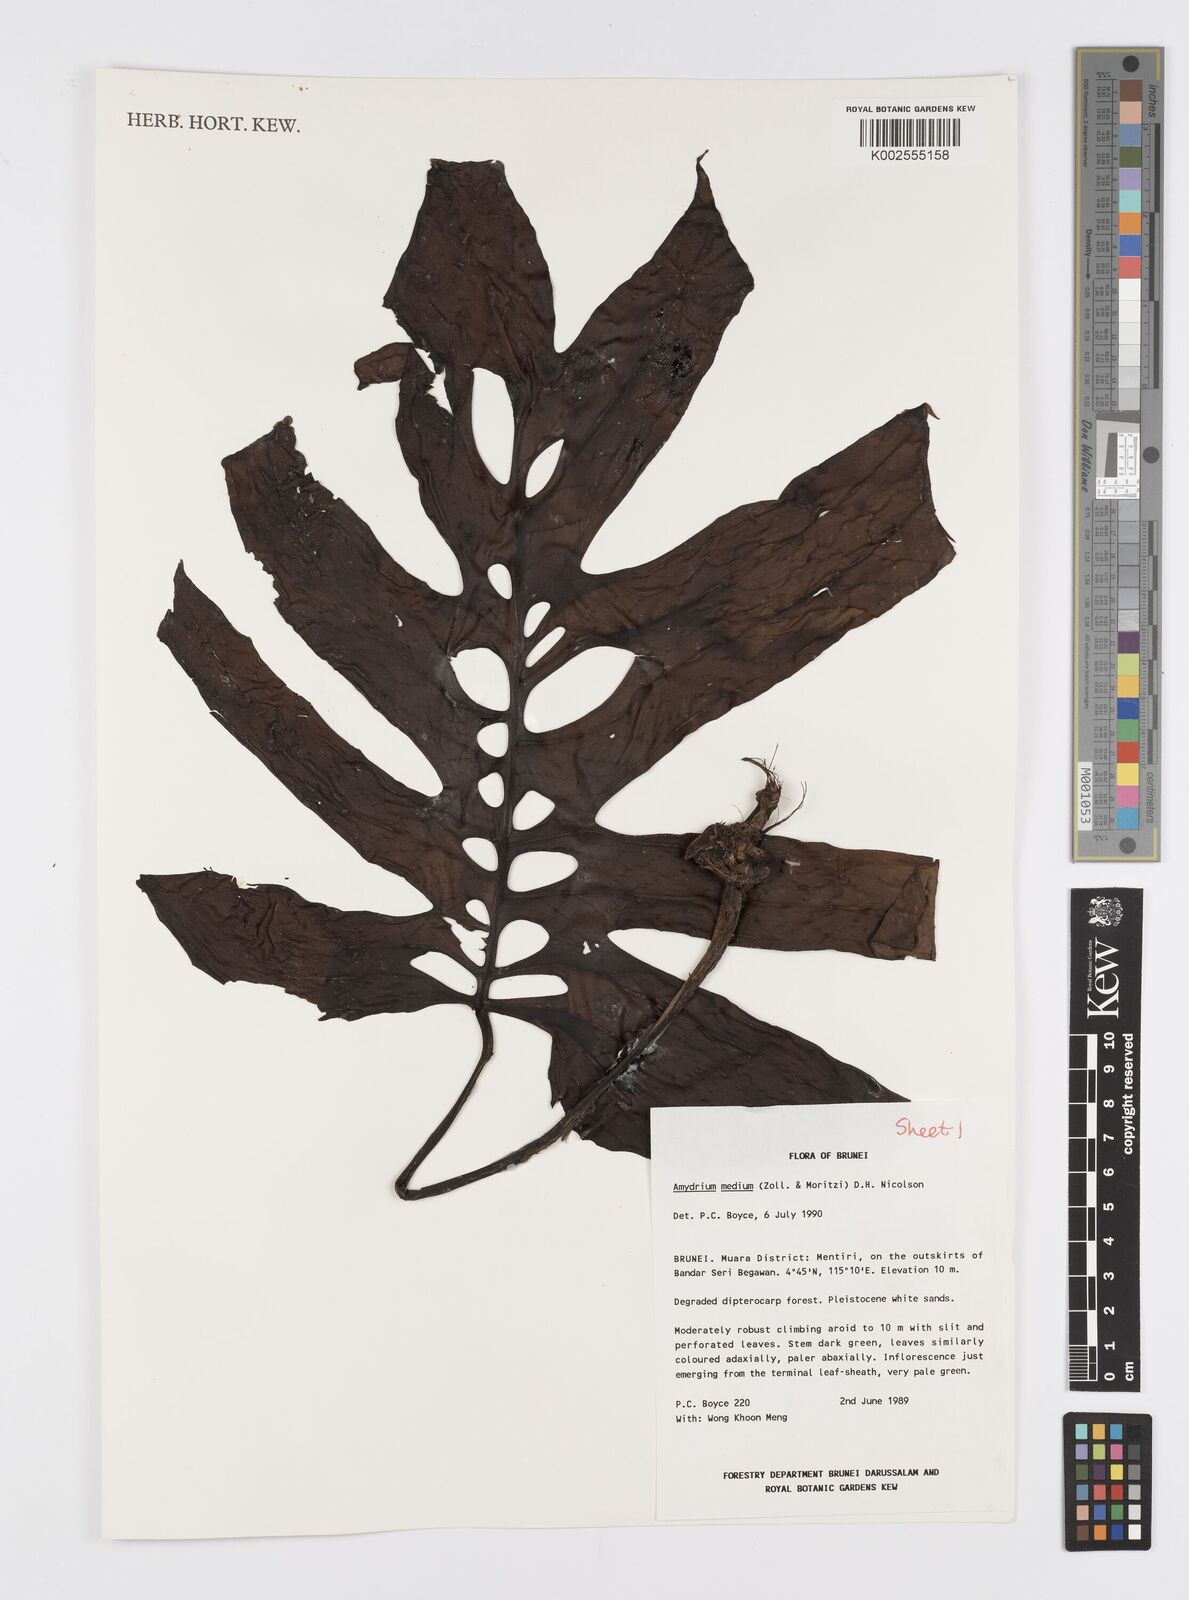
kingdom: Plantae
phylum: Tracheophyta
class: Liliopsida
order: Alismatales
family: Araceae
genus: Amydrium
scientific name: Amydrium medium
